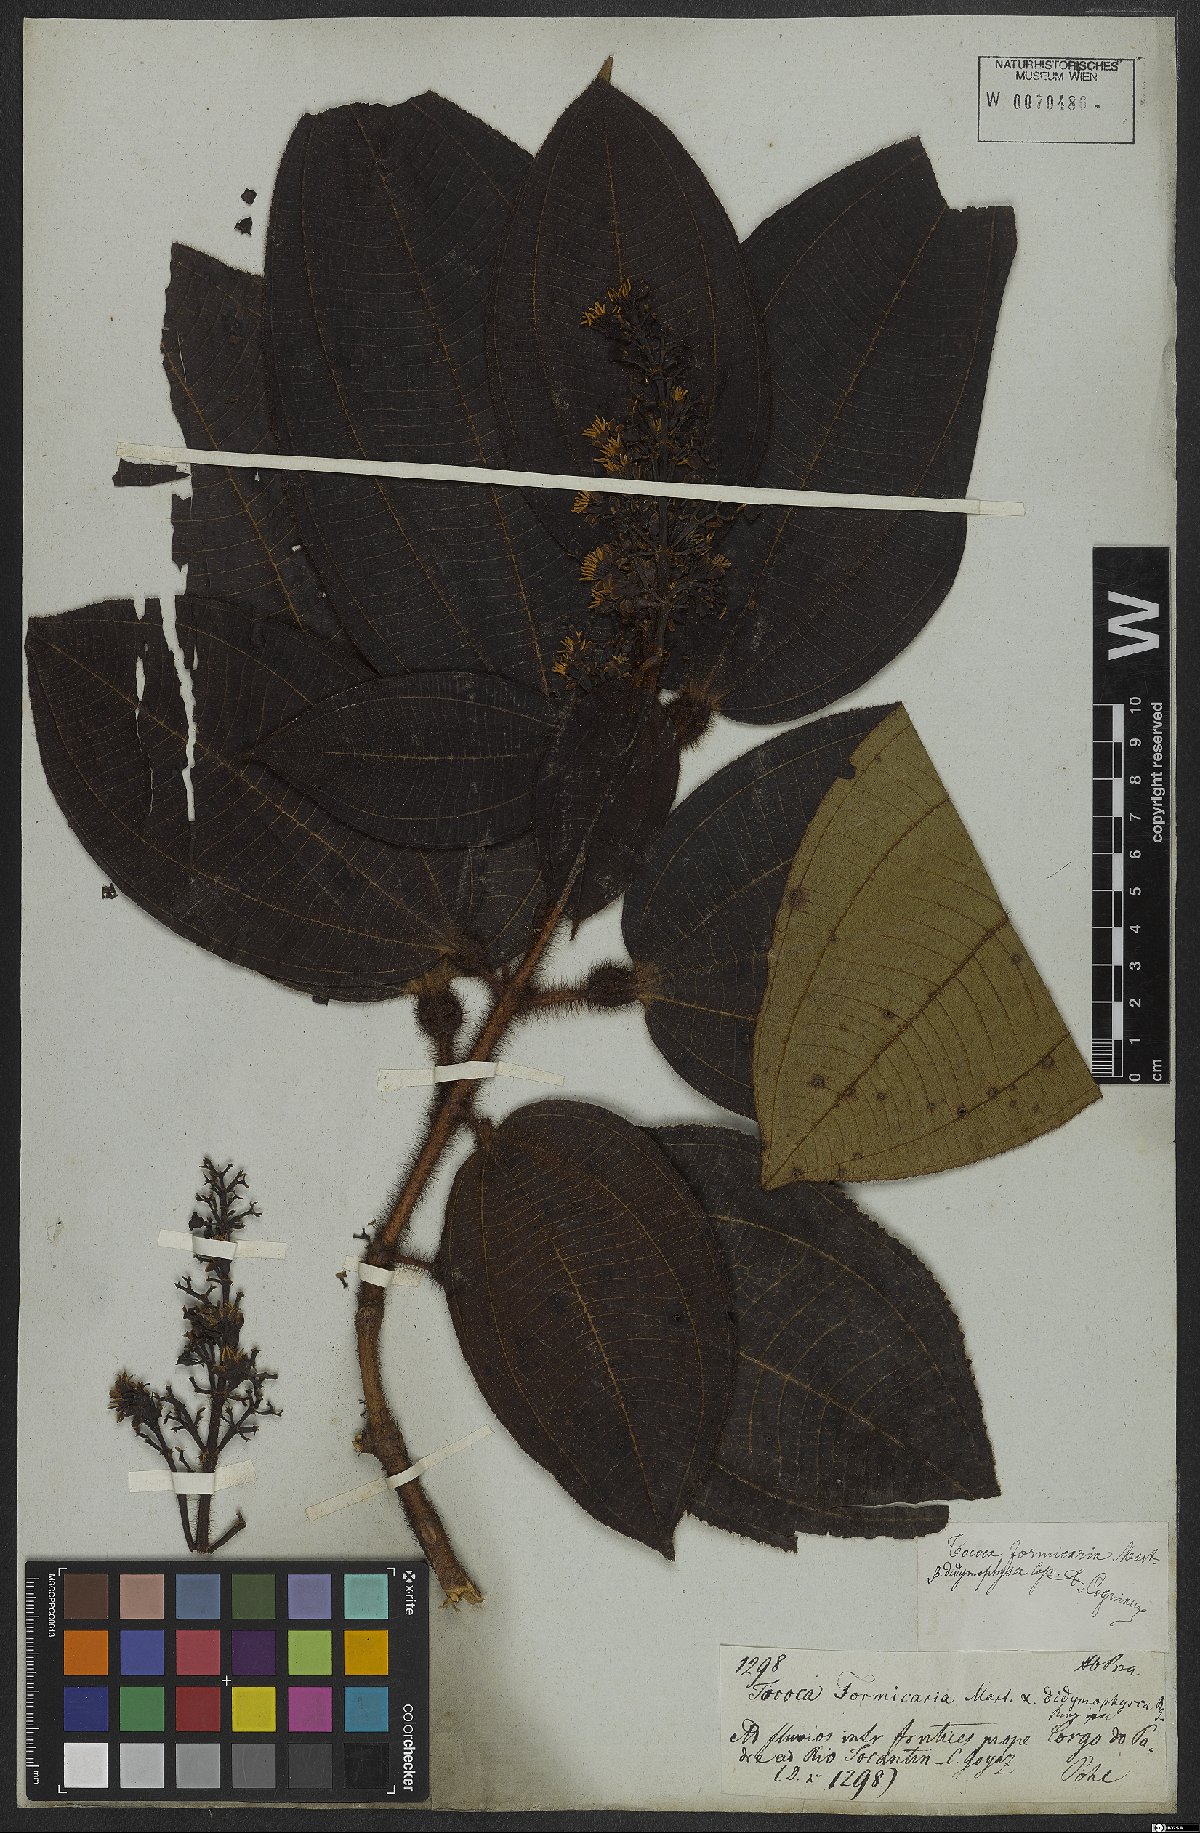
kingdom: Plantae
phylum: Tracheophyta
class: Magnoliopsida
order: Myrtales
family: Melastomataceae
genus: Miconia
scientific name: Miconia tococa
